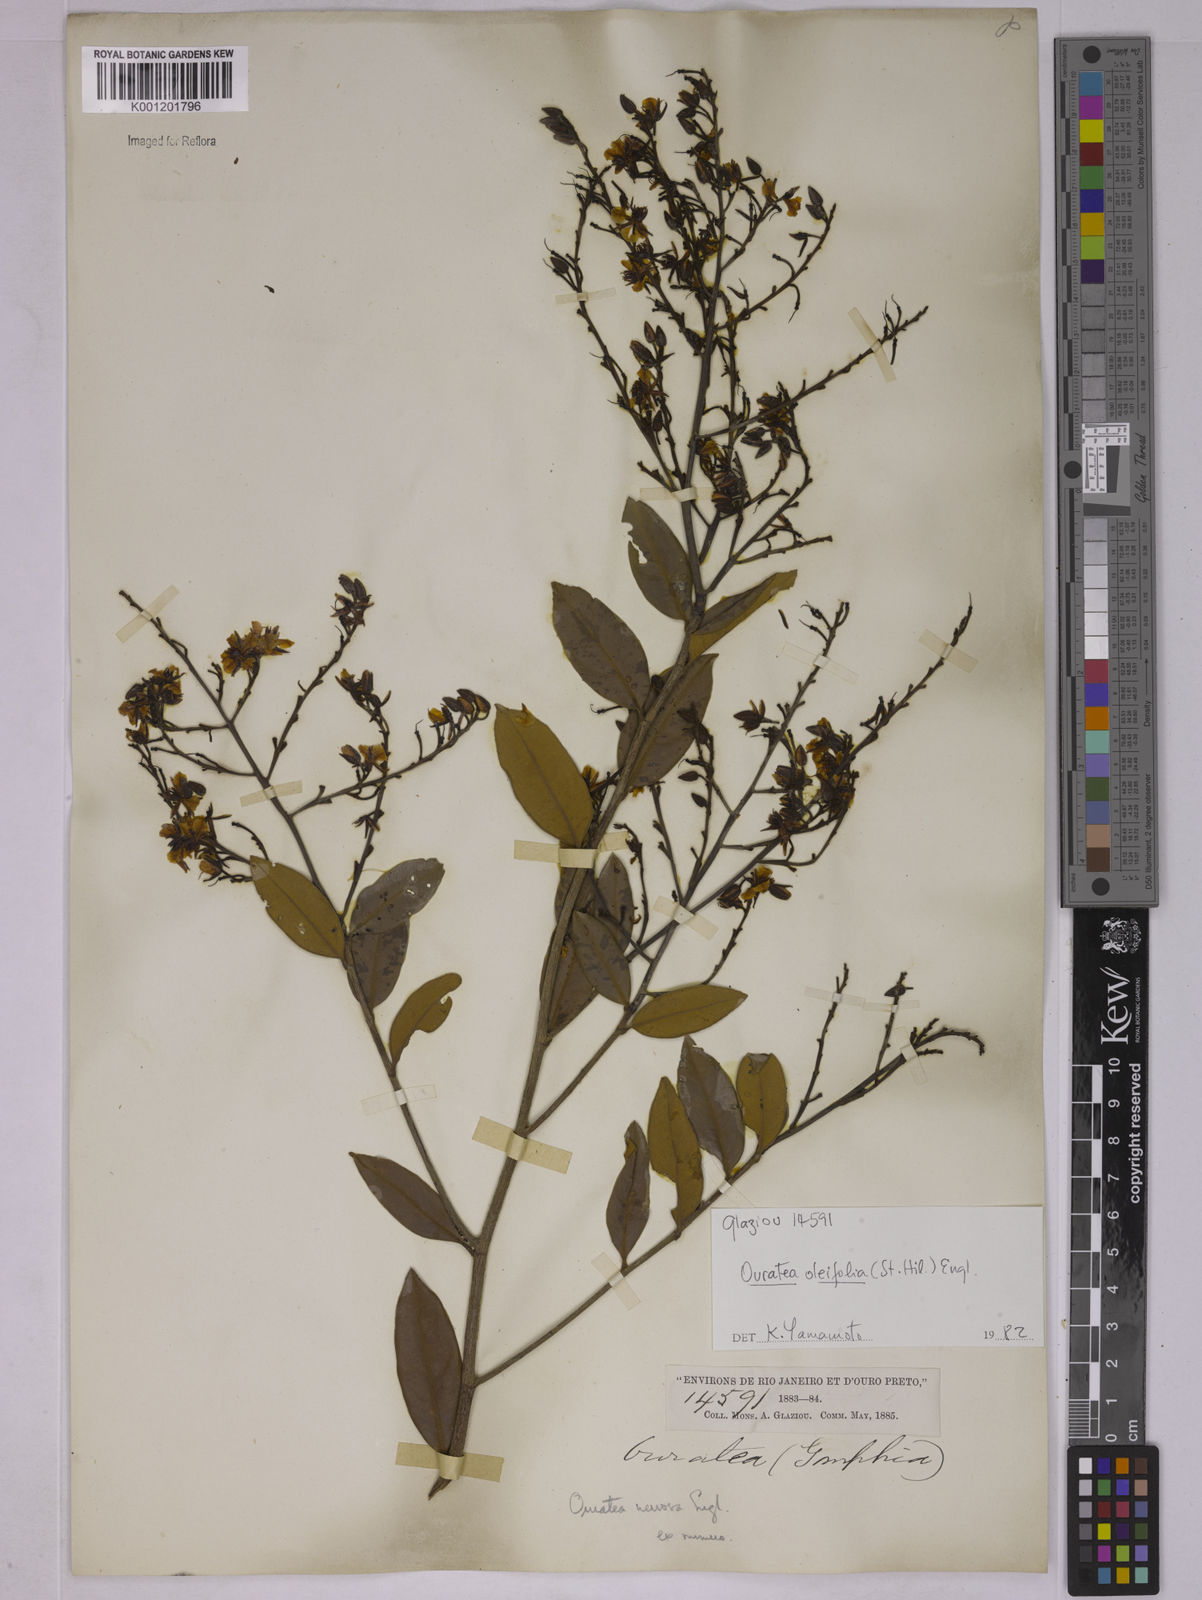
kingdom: Plantae
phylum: Tracheophyta
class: Magnoliopsida
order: Malpighiales
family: Ochnaceae
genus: Ouratea
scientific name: Ouratea oleifolia
